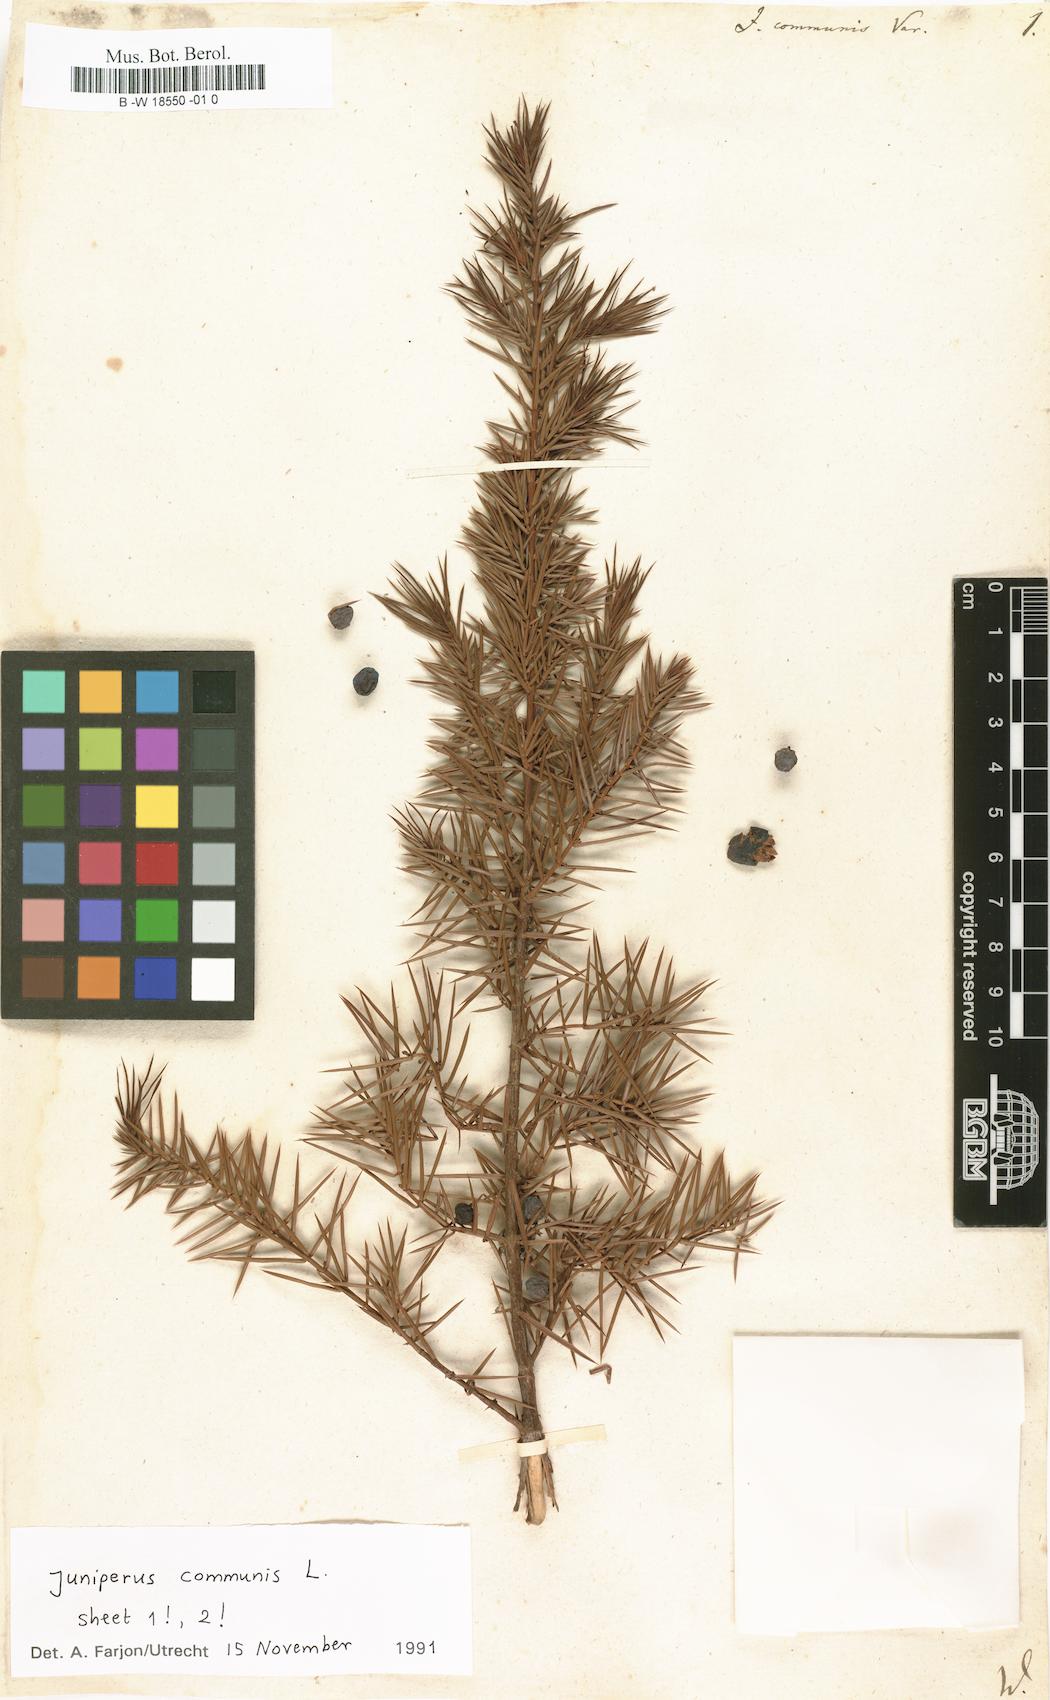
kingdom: Plantae
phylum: Tracheophyta
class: Pinopsida
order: Pinales
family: Cupressaceae
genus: Juniperus
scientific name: Juniperus communis
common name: Common juniper
